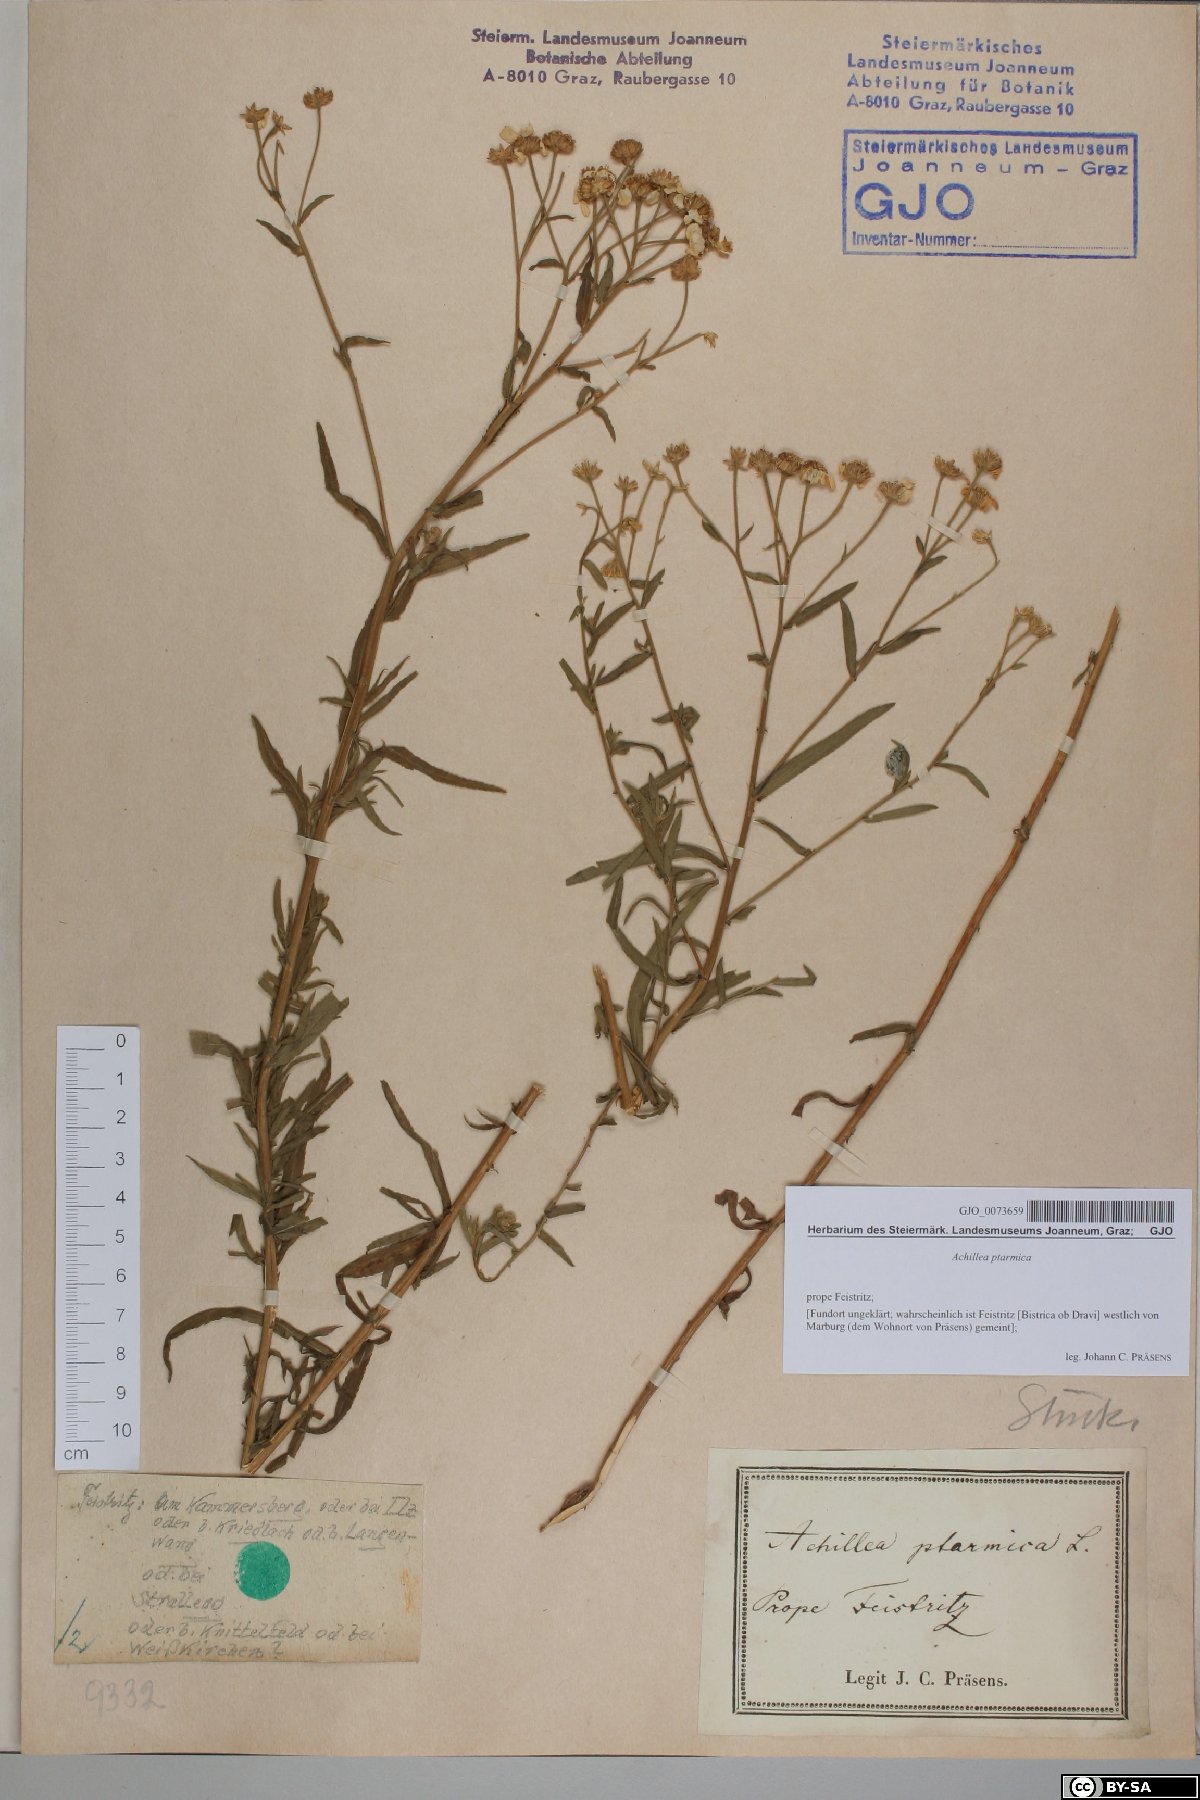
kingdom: Plantae
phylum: Tracheophyta
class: Magnoliopsida
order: Asterales
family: Asteraceae
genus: Achillea
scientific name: Achillea ptarmica
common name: Sneezeweed
